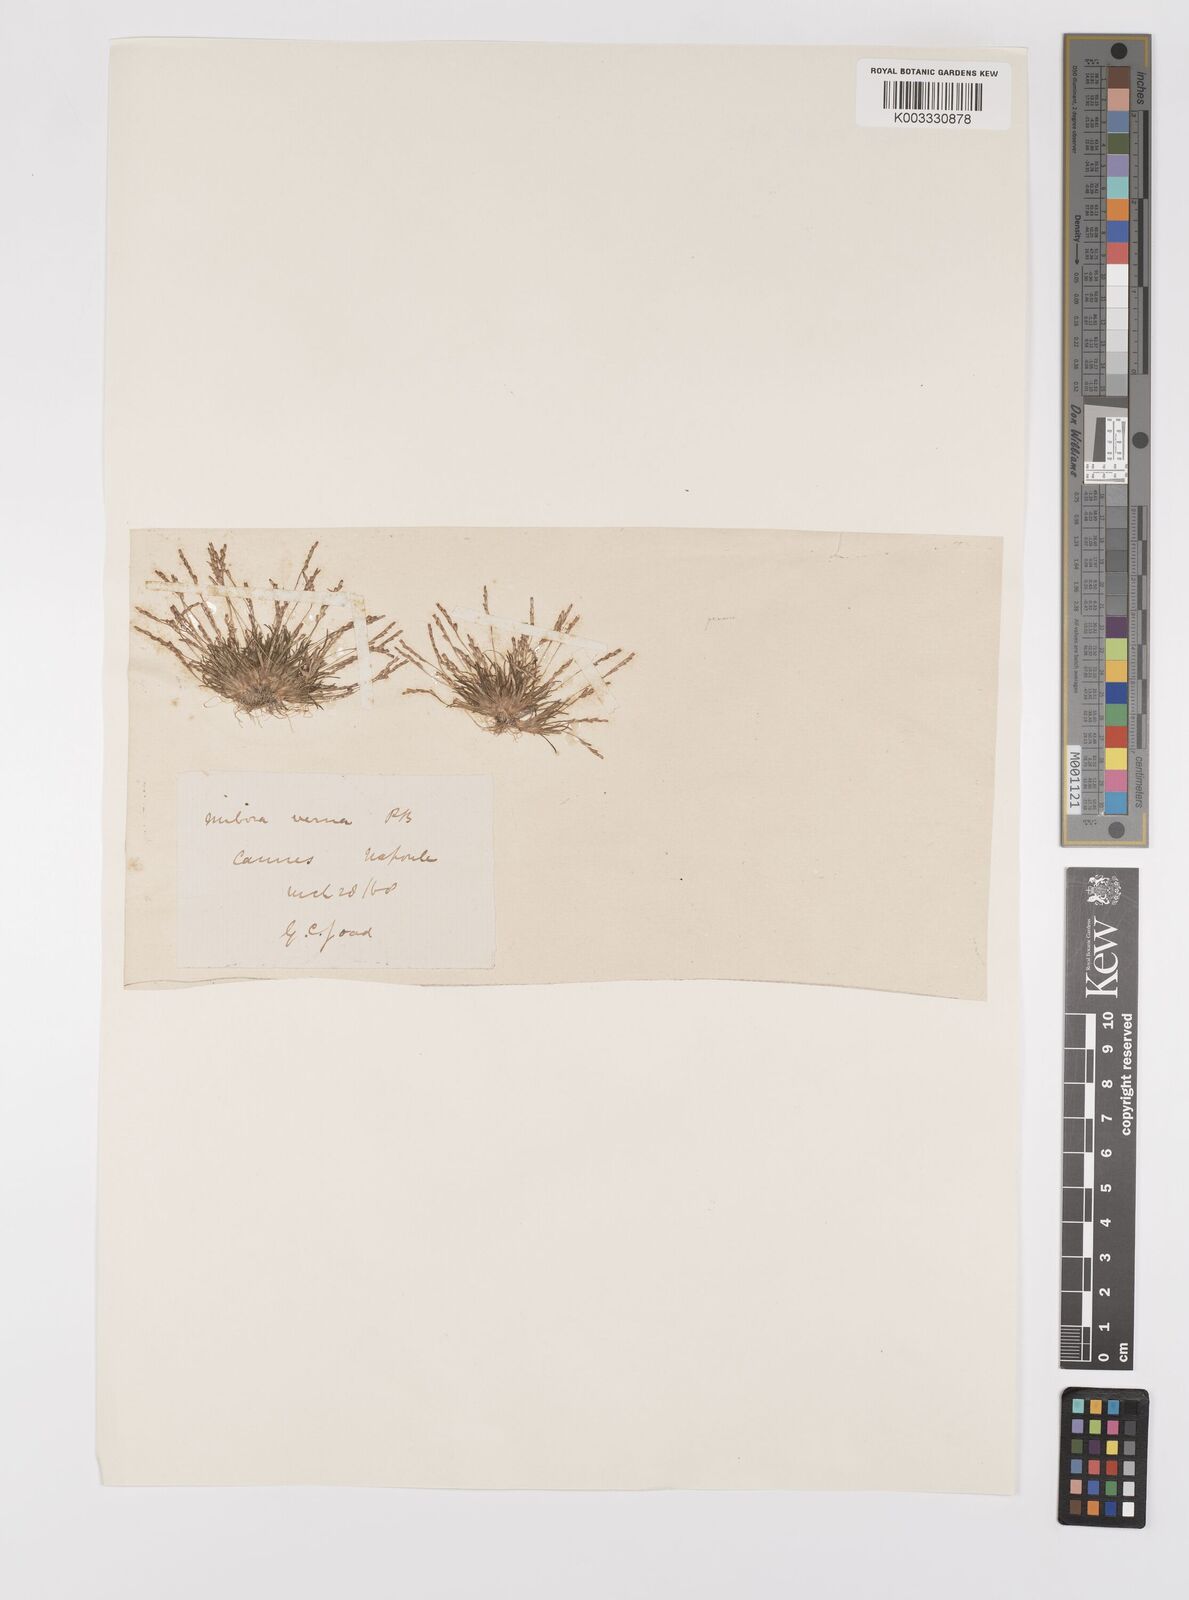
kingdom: Plantae
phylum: Tracheophyta
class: Liliopsida
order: Poales
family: Poaceae
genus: Mibora
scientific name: Mibora minima
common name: Early sand-grass
